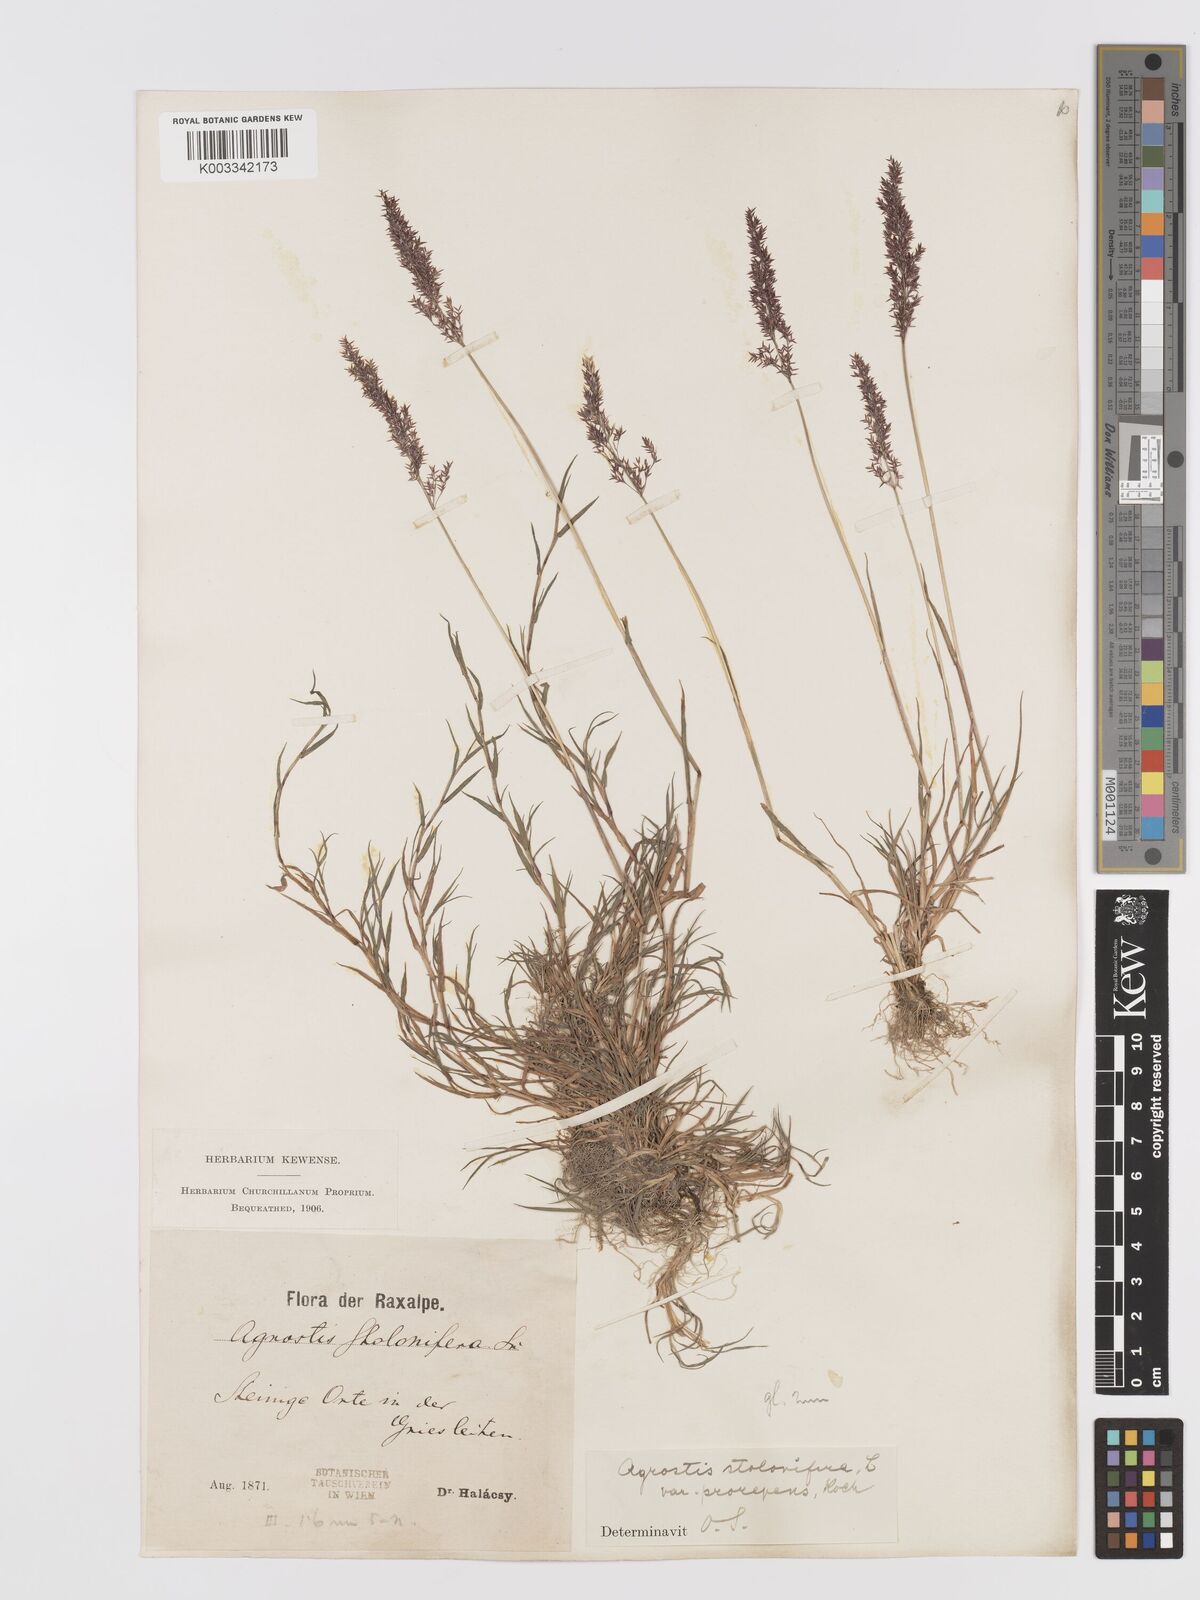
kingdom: Plantae
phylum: Tracheophyta
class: Liliopsida
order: Poales
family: Poaceae
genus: Agrostis
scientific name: Agrostis stolonifera
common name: Creeping bentgrass
